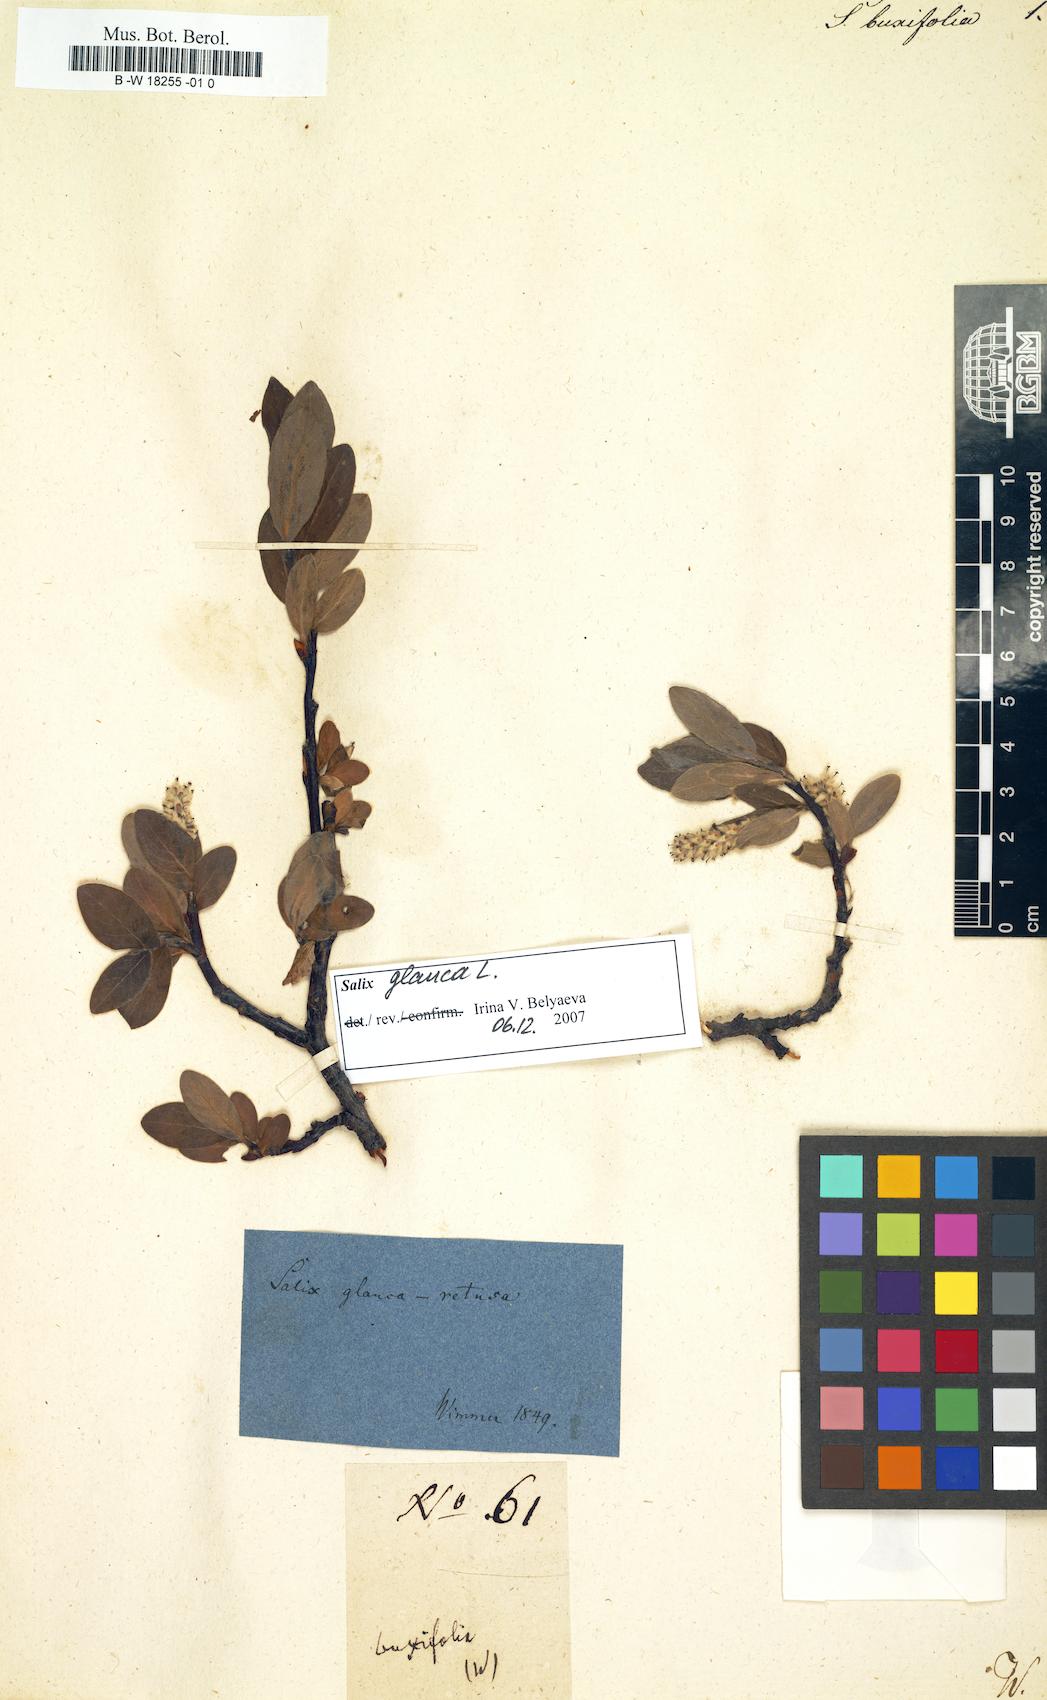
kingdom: Plantae
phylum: Tracheophyta
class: Magnoliopsida
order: Malpighiales
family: Salicaceae
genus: Salix
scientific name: Salix phlebophylla
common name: Skeleton-leaved willow
